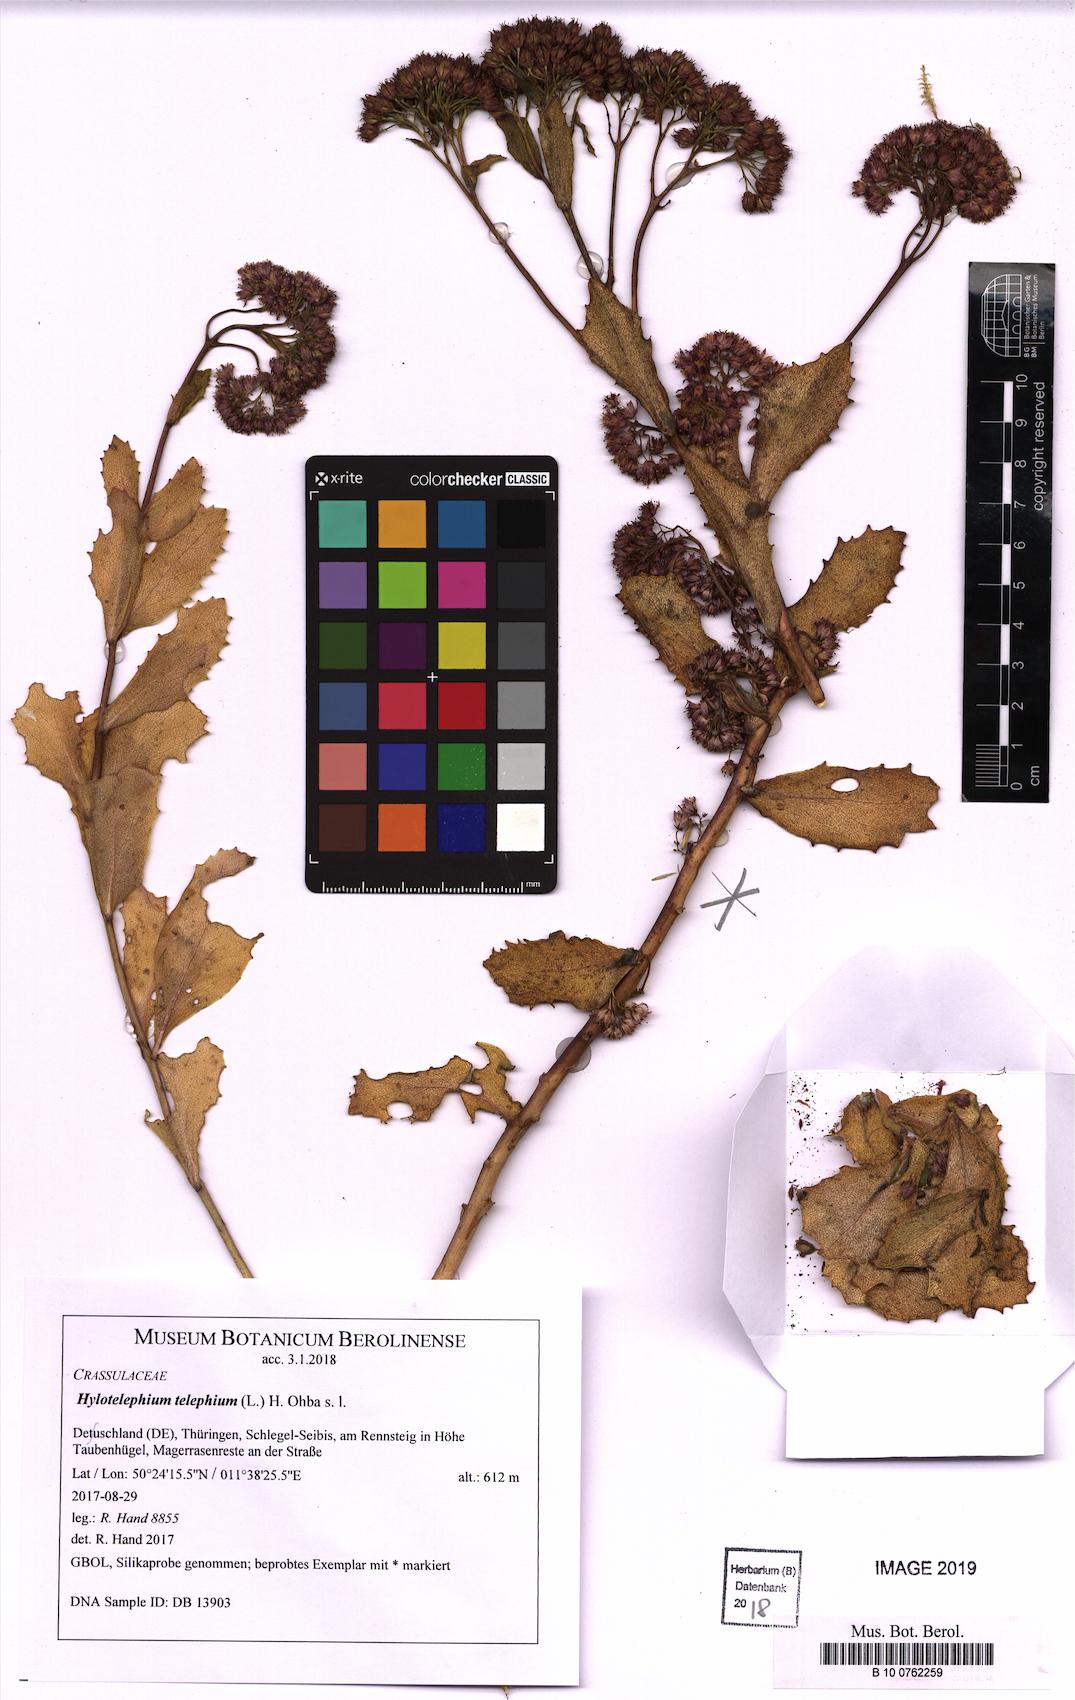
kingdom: Plantae
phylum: Tracheophyta
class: Magnoliopsida
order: Saxifragales
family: Crassulaceae
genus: Hylotelephium
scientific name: Hylotelephium telephium
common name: Live-forever
